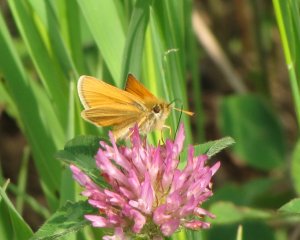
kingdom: Animalia
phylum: Arthropoda
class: Insecta
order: Lepidoptera
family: Hesperiidae
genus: Thymelicus
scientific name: Thymelicus lineola
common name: European Skipper
